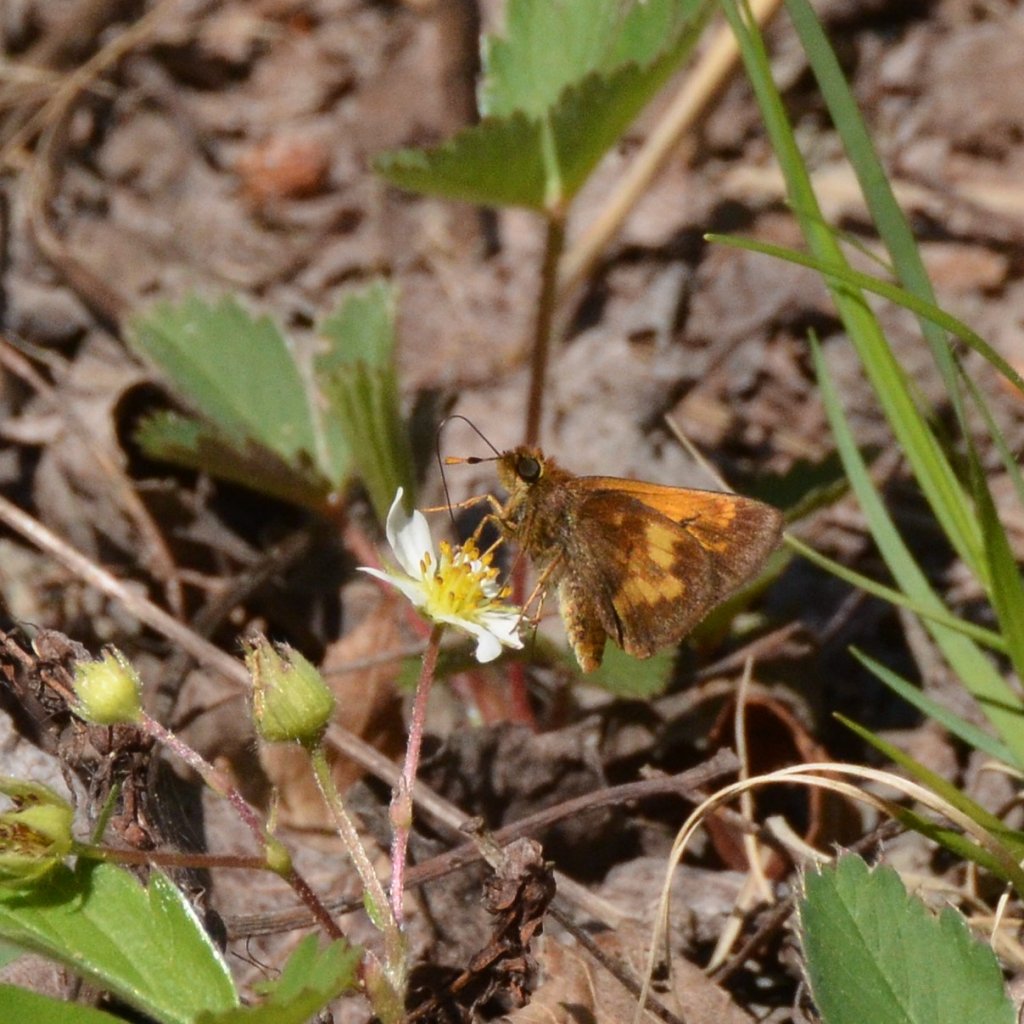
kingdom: Animalia
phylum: Arthropoda
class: Insecta
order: Lepidoptera
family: Hesperiidae
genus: Lon
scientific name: Lon hobomok
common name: Hobomok Skipper
